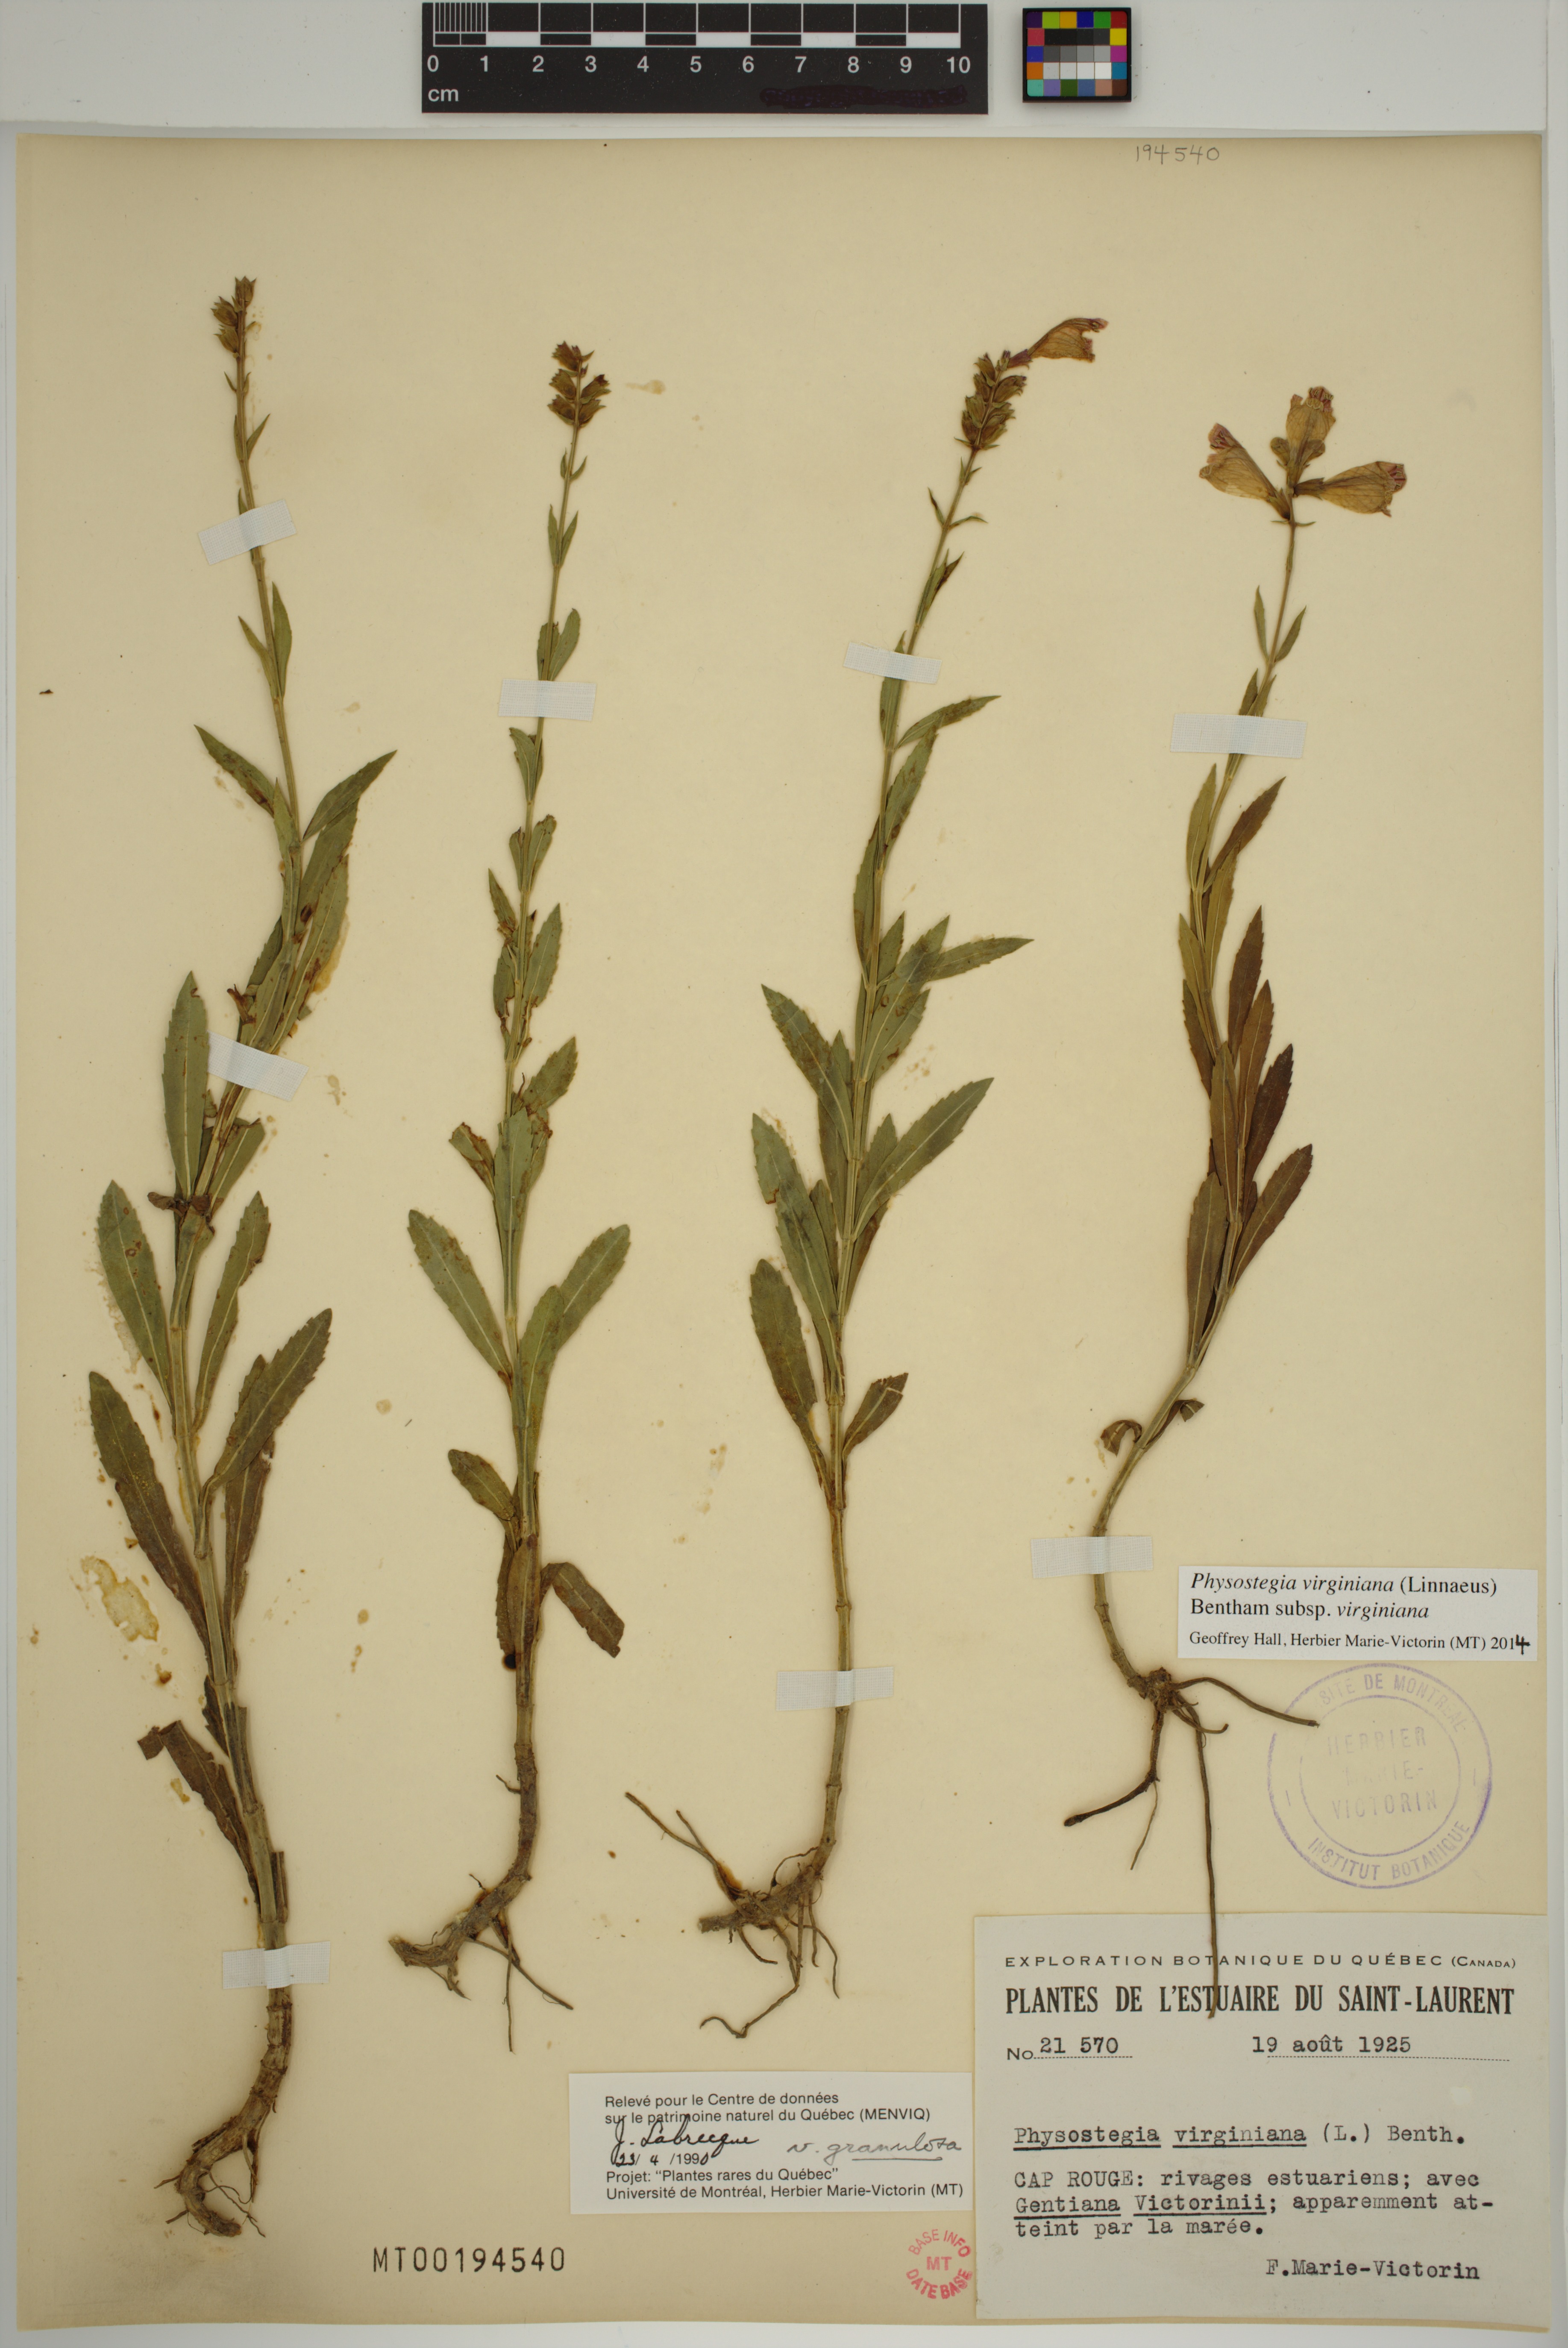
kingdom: Plantae
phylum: Tracheophyta
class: Magnoliopsida
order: Lamiales
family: Lamiaceae
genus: Physostegia
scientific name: Physostegia virginiana
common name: Obedient-plant
